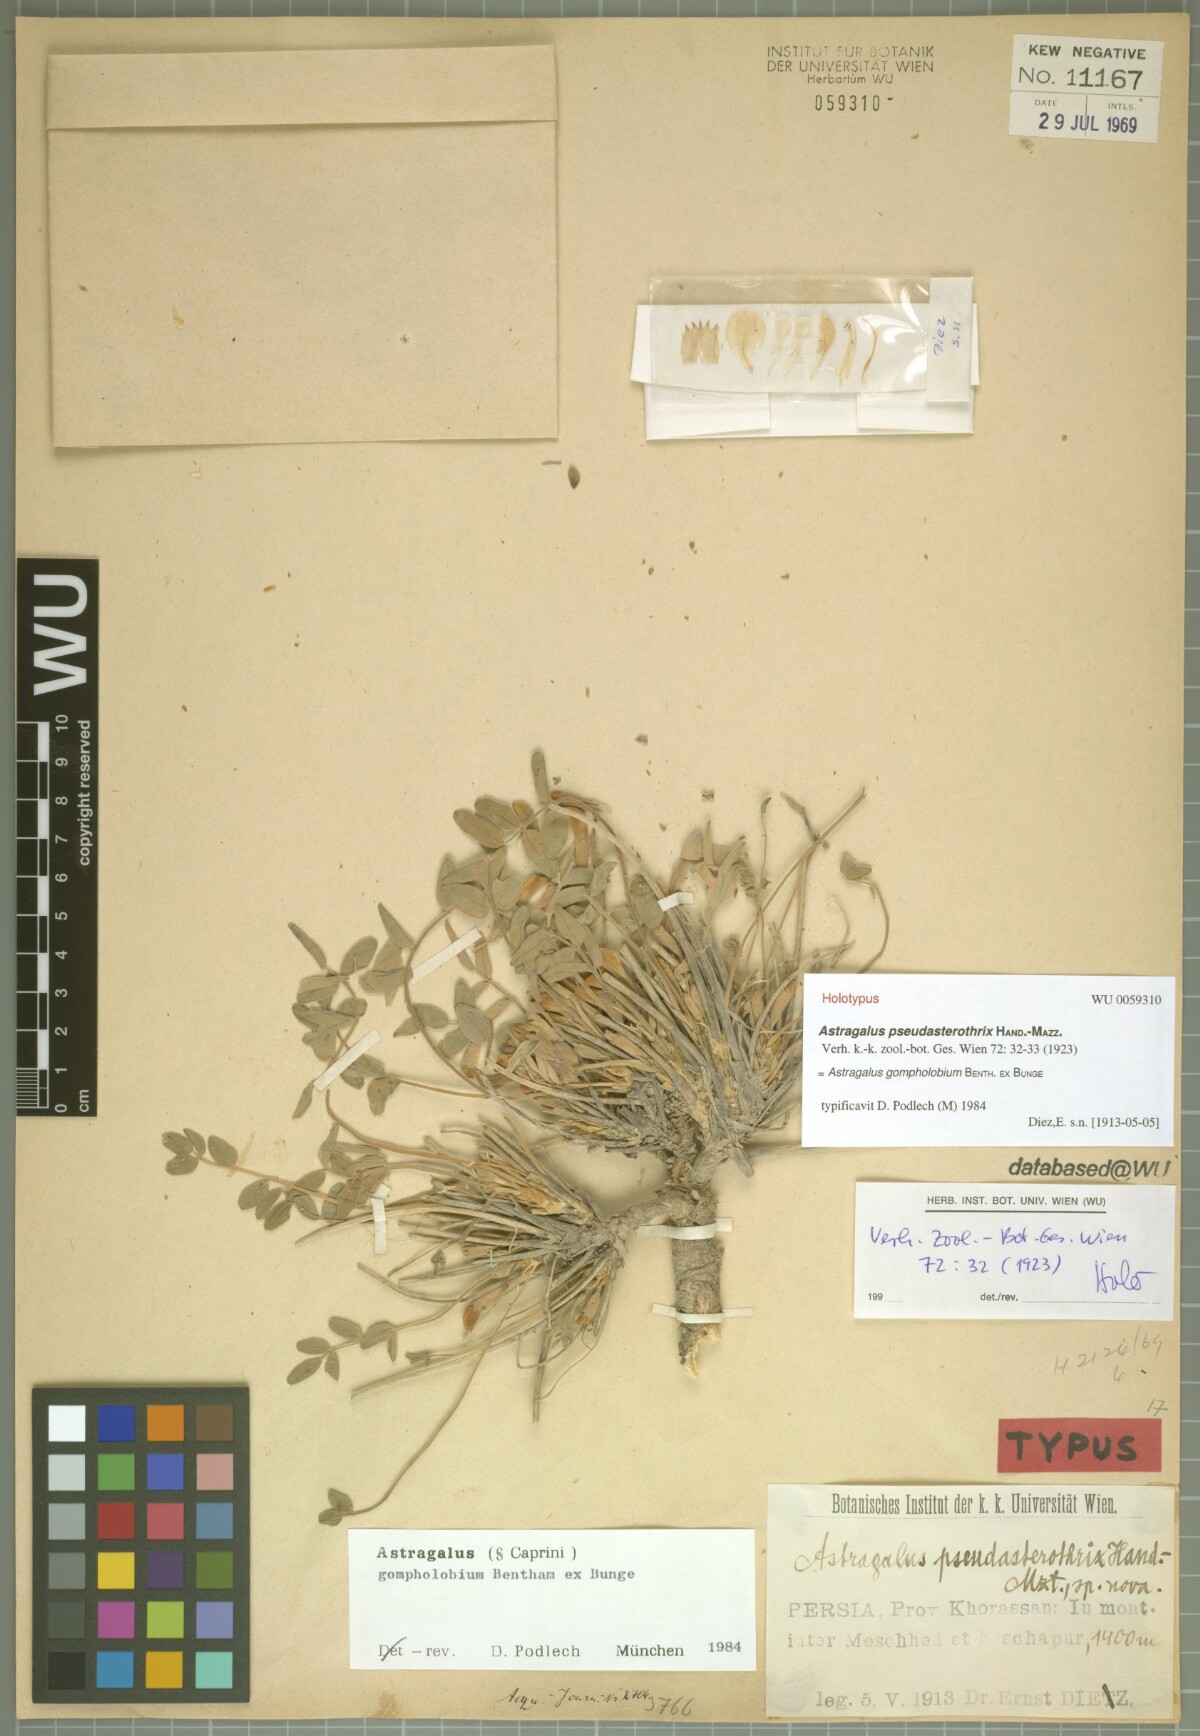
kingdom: Plantae
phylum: Tracheophyta
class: Magnoliopsida
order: Fabales
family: Fabaceae
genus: Astragalus
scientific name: Astragalus gompholobium
